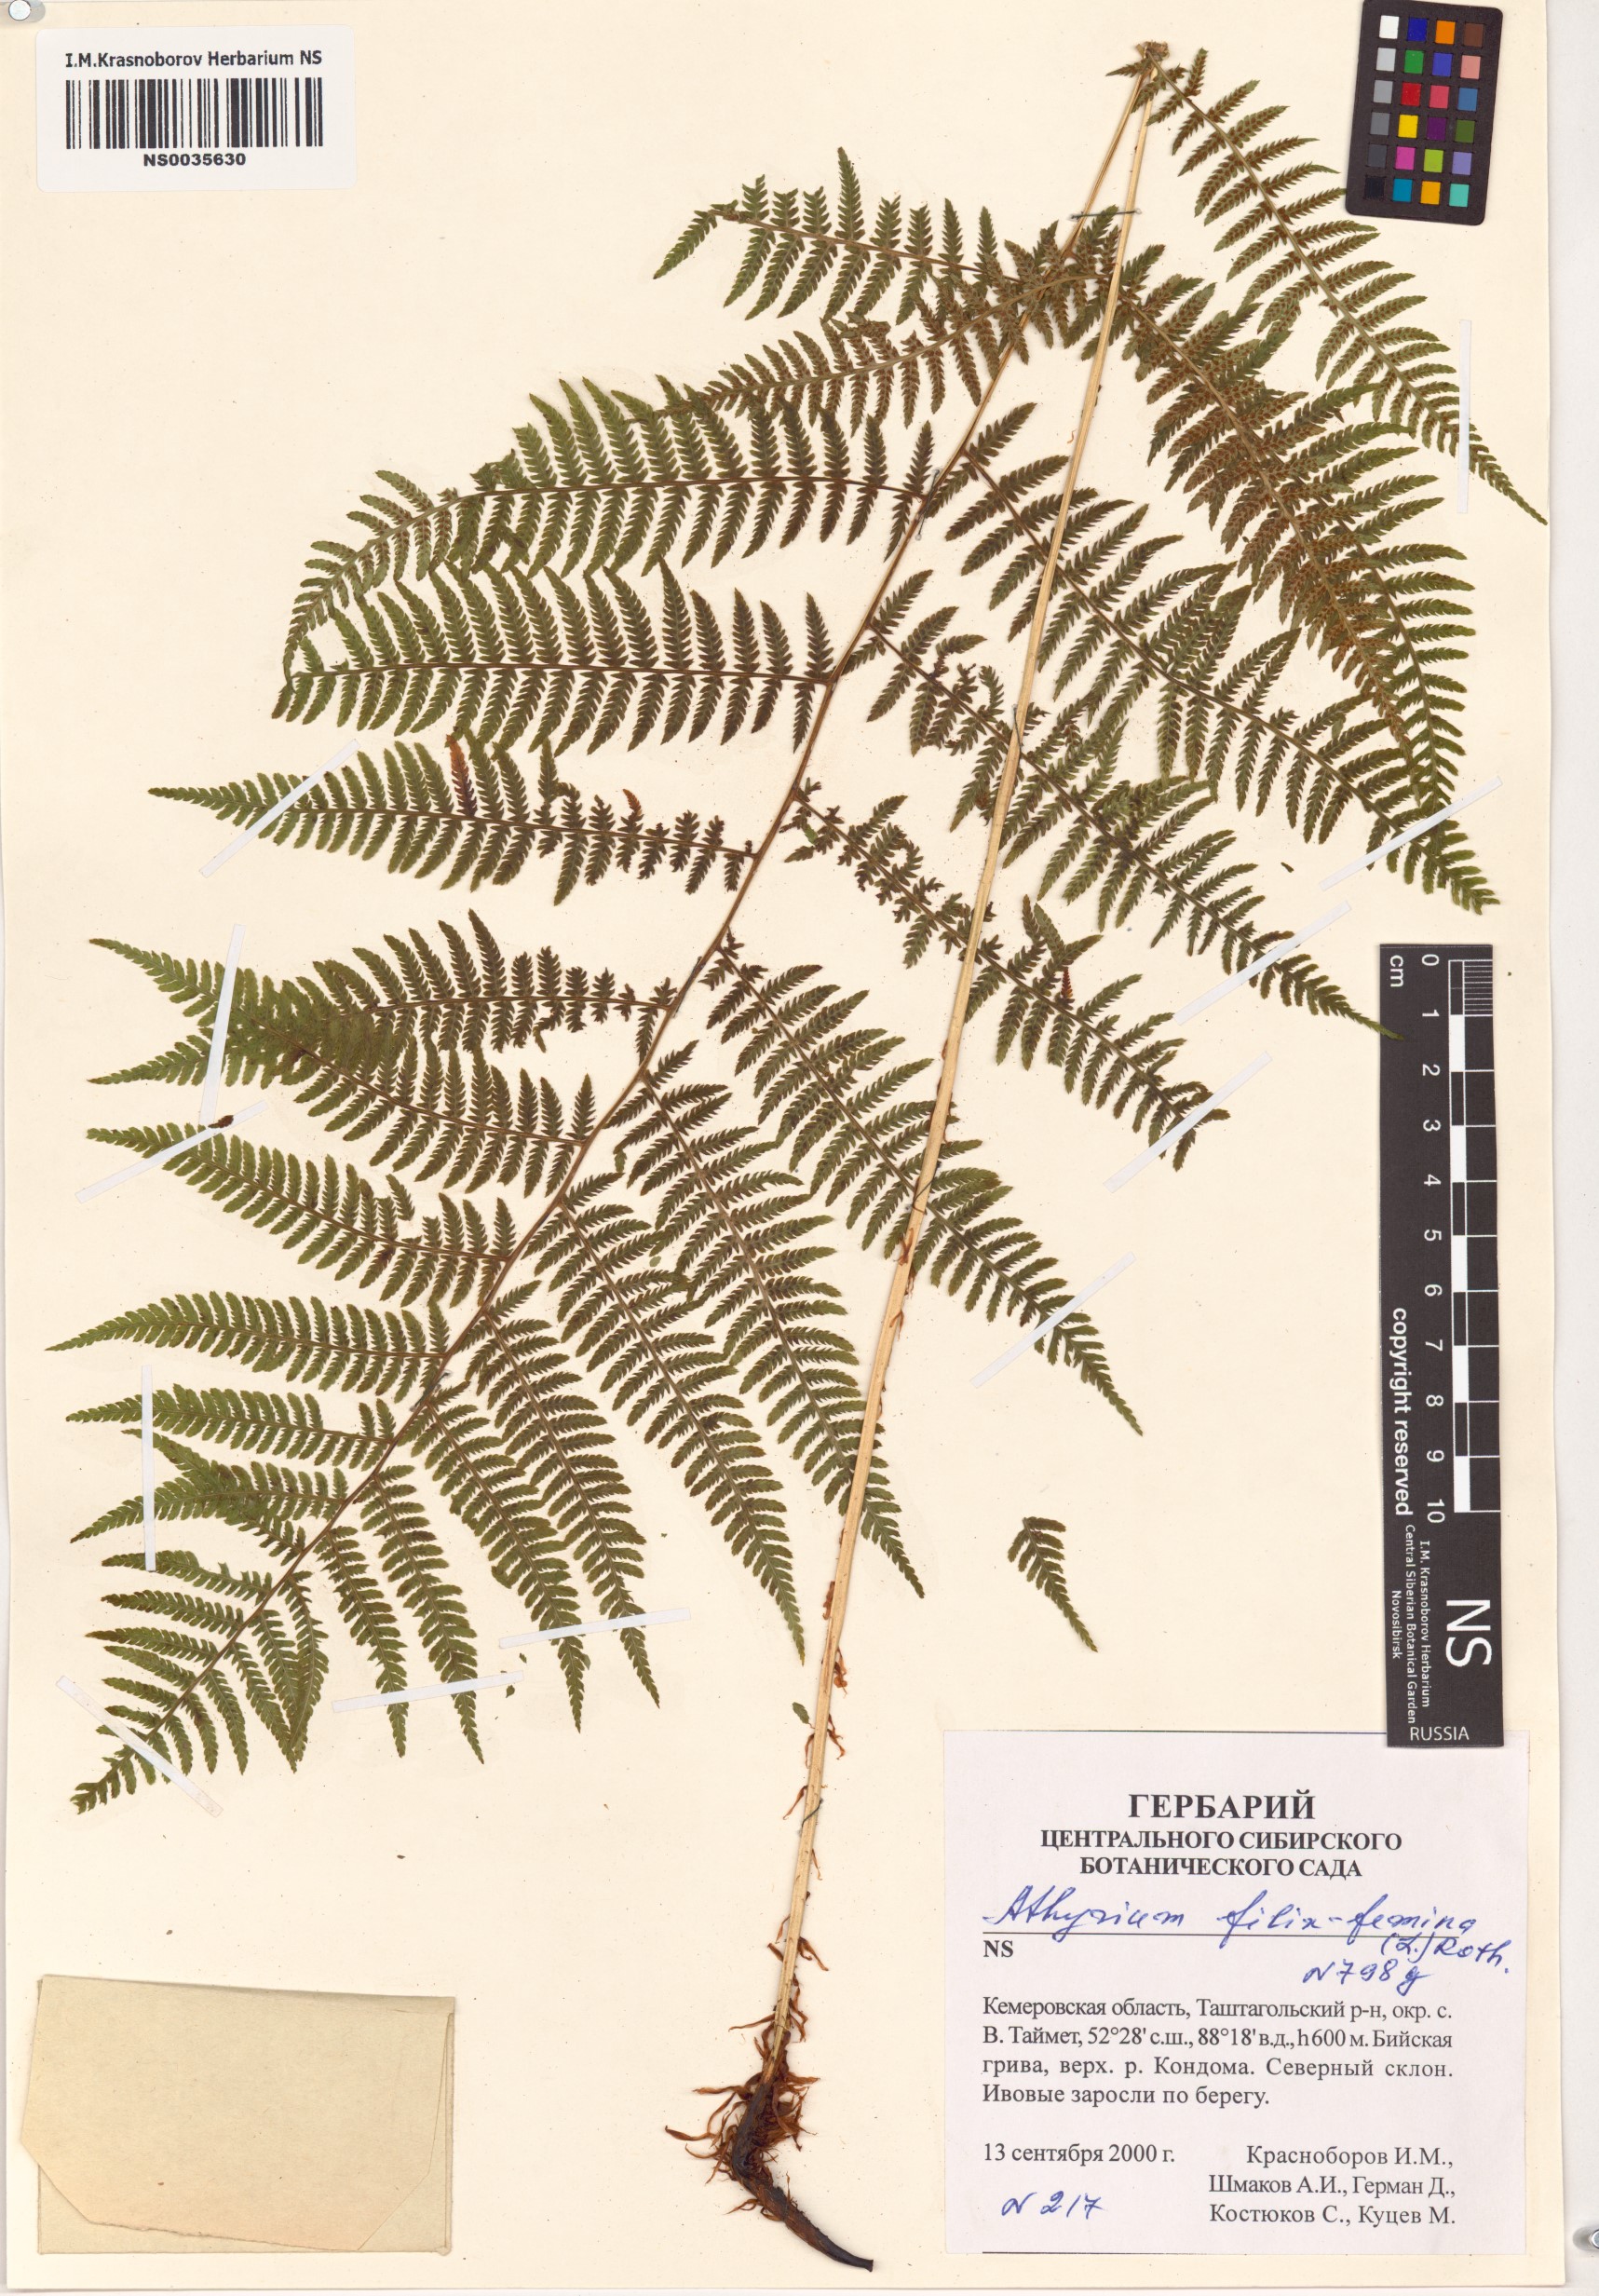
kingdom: Plantae
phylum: Tracheophyta
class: Polypodiopsida
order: Polypodiales
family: Athyriaceae
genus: Athyrium
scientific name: Athyrium filix-femina
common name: Lady fern
